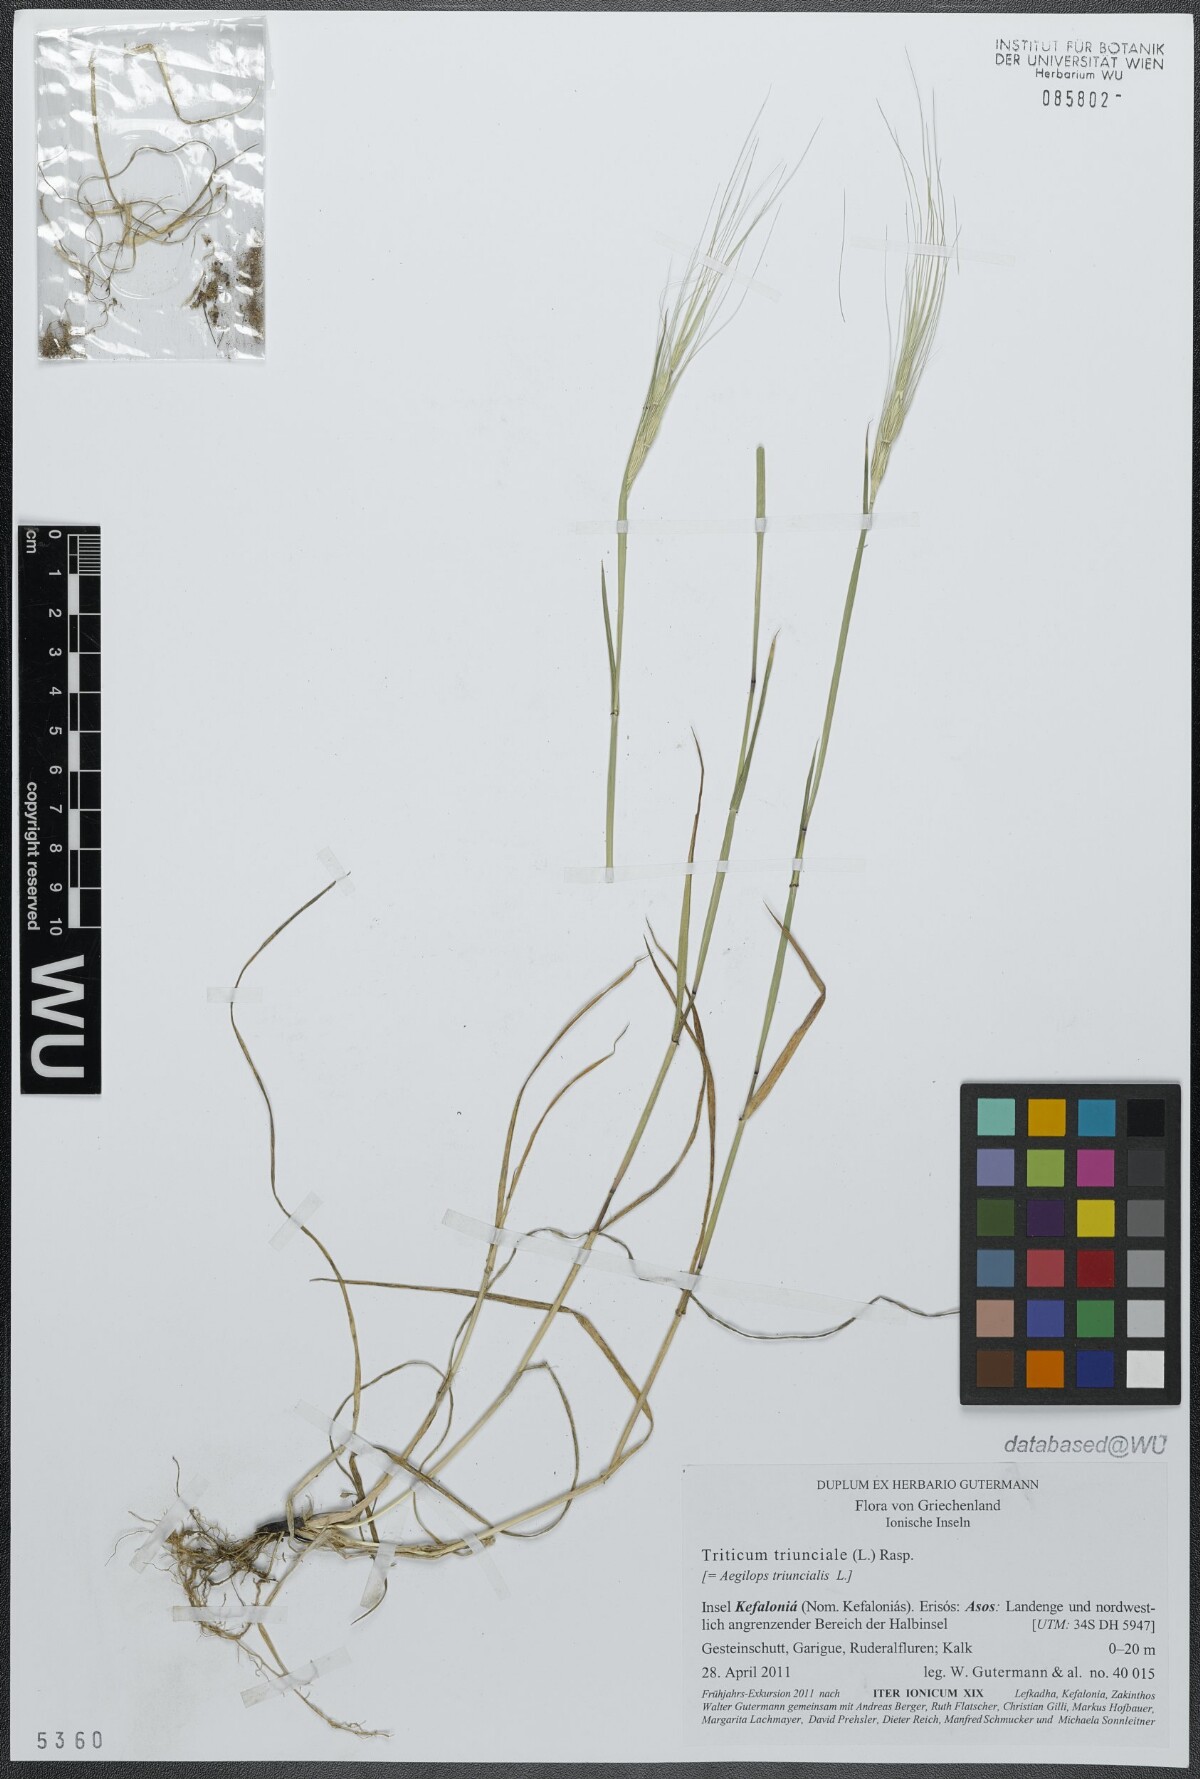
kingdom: Plantae
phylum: Tracheophyta
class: Liliopsida
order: Poales
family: Poaceae
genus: Aegilops
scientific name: Aegilops triuncialis
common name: Barb goat grass
